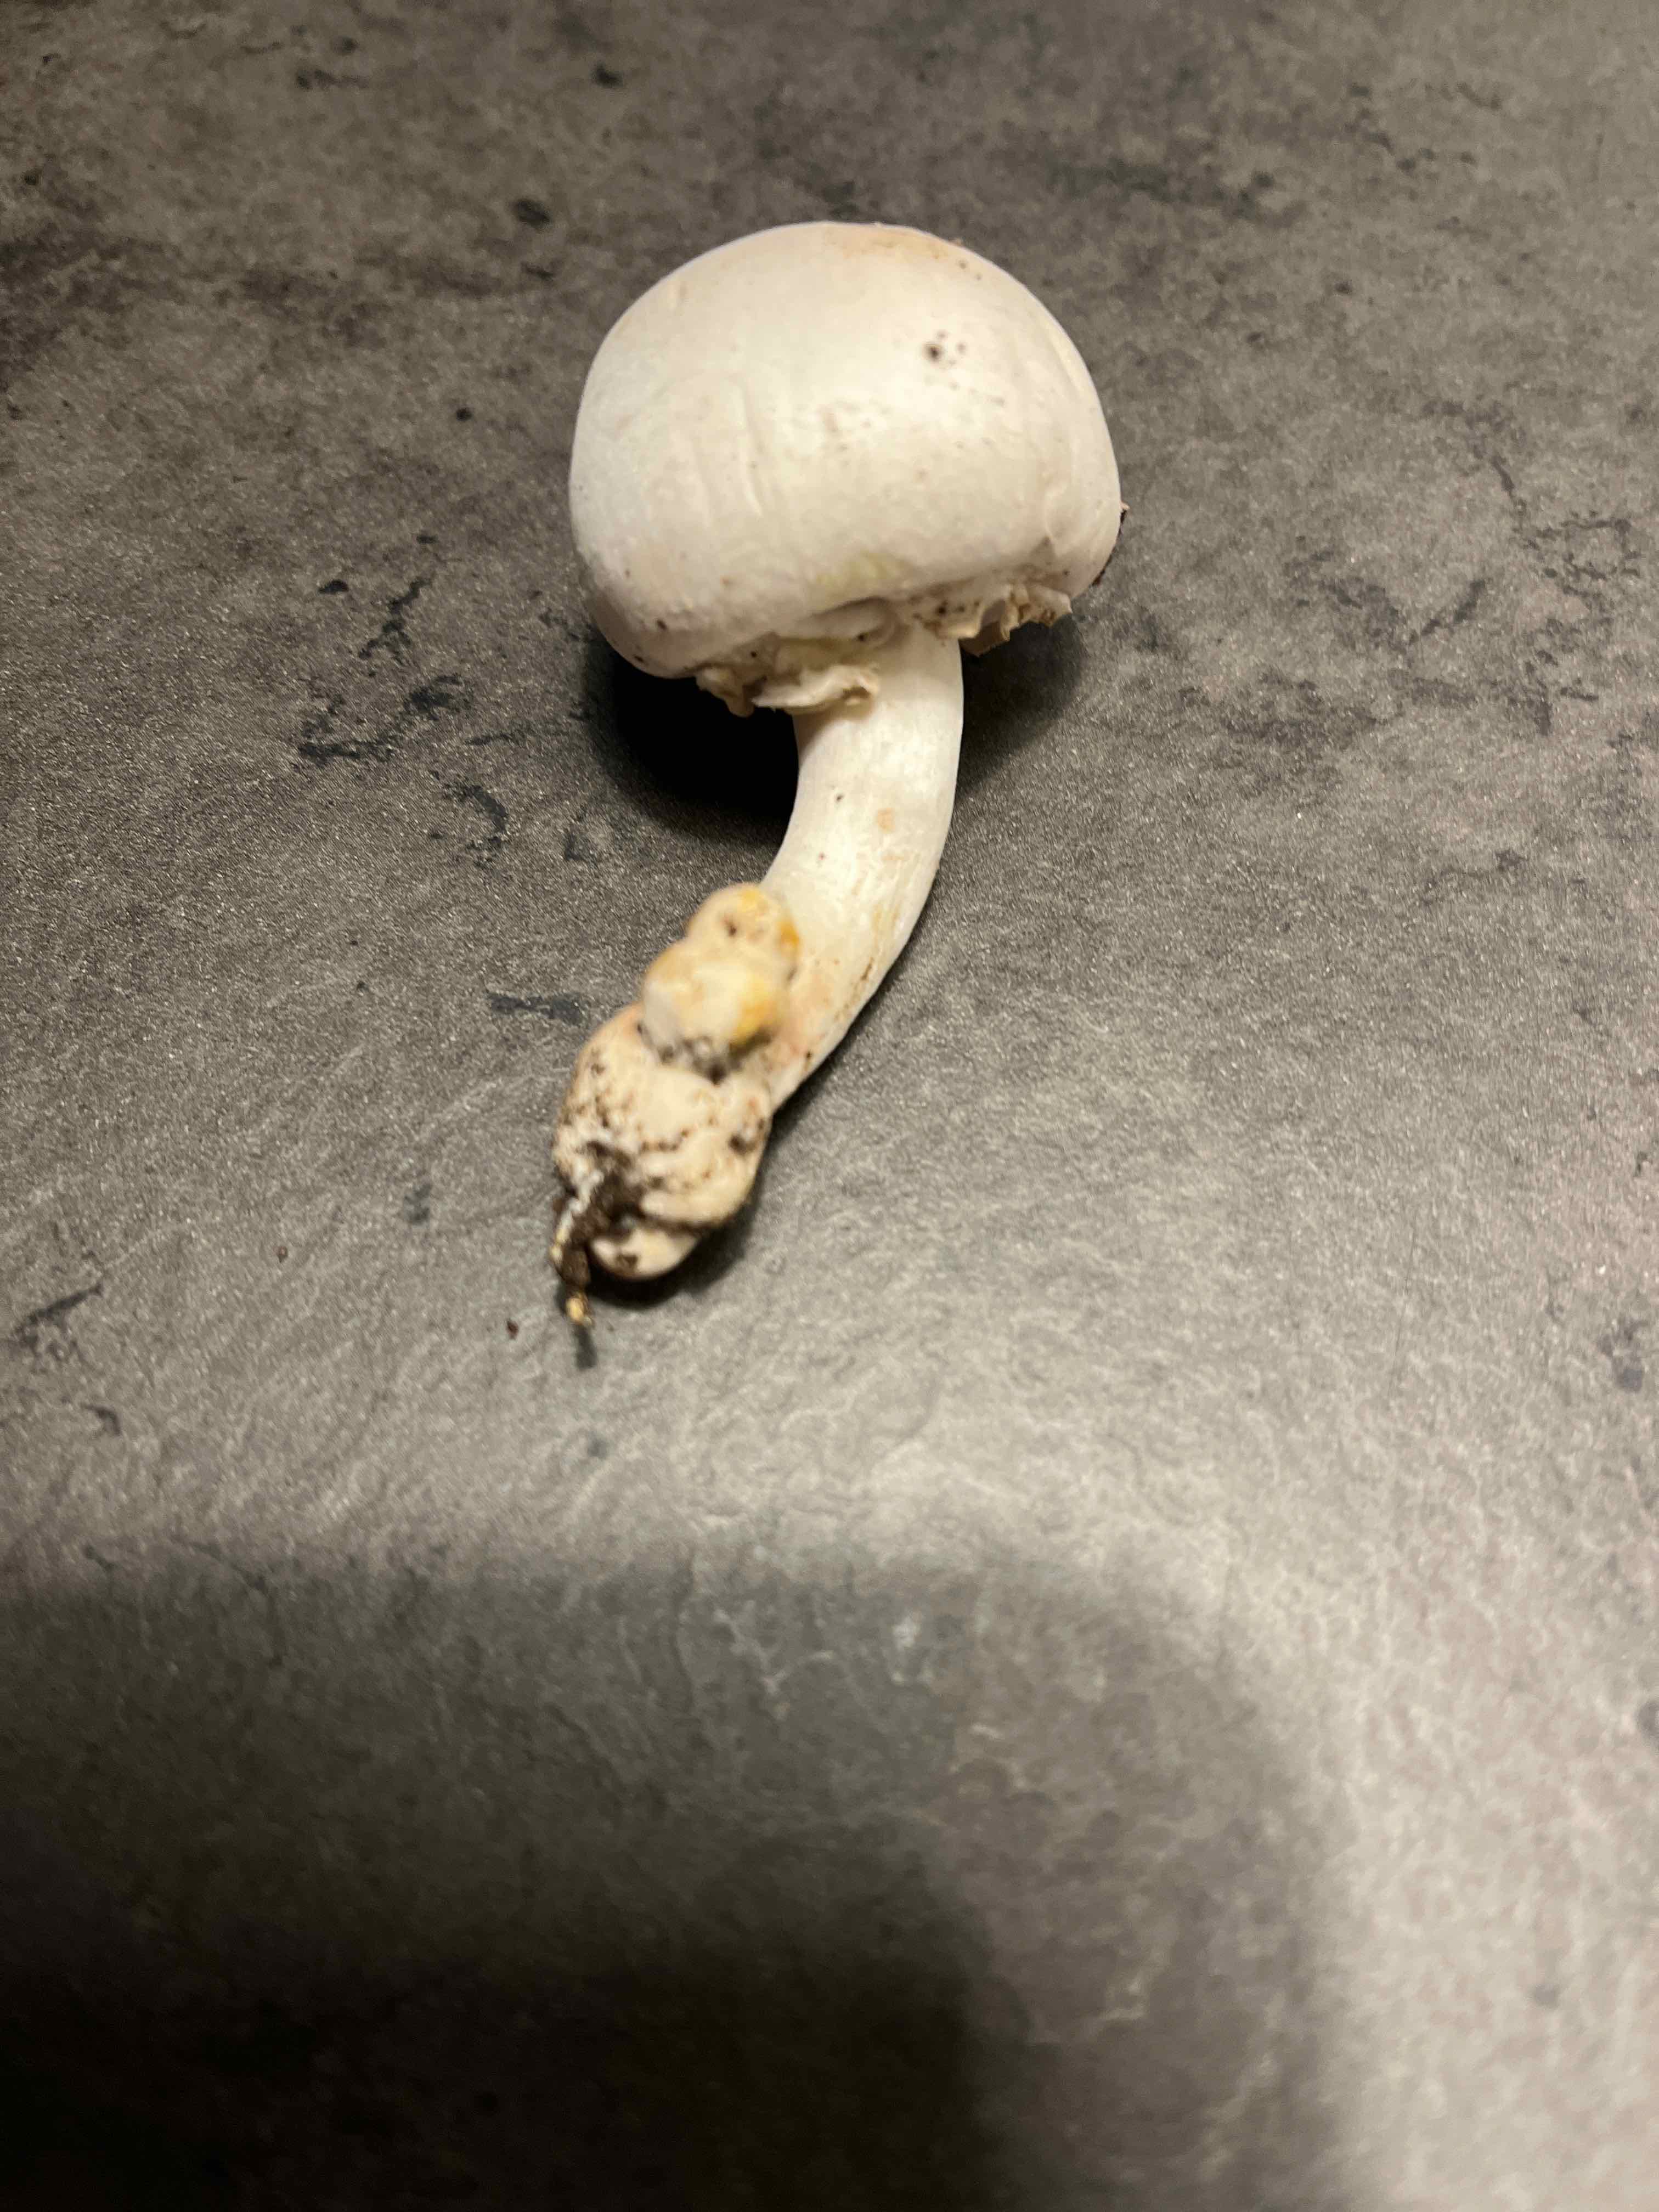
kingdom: Fungi
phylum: Basidiomycota
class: Agaricomycetes
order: Agaricales
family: Agaricaceae
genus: Agaricus
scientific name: Agaricus
